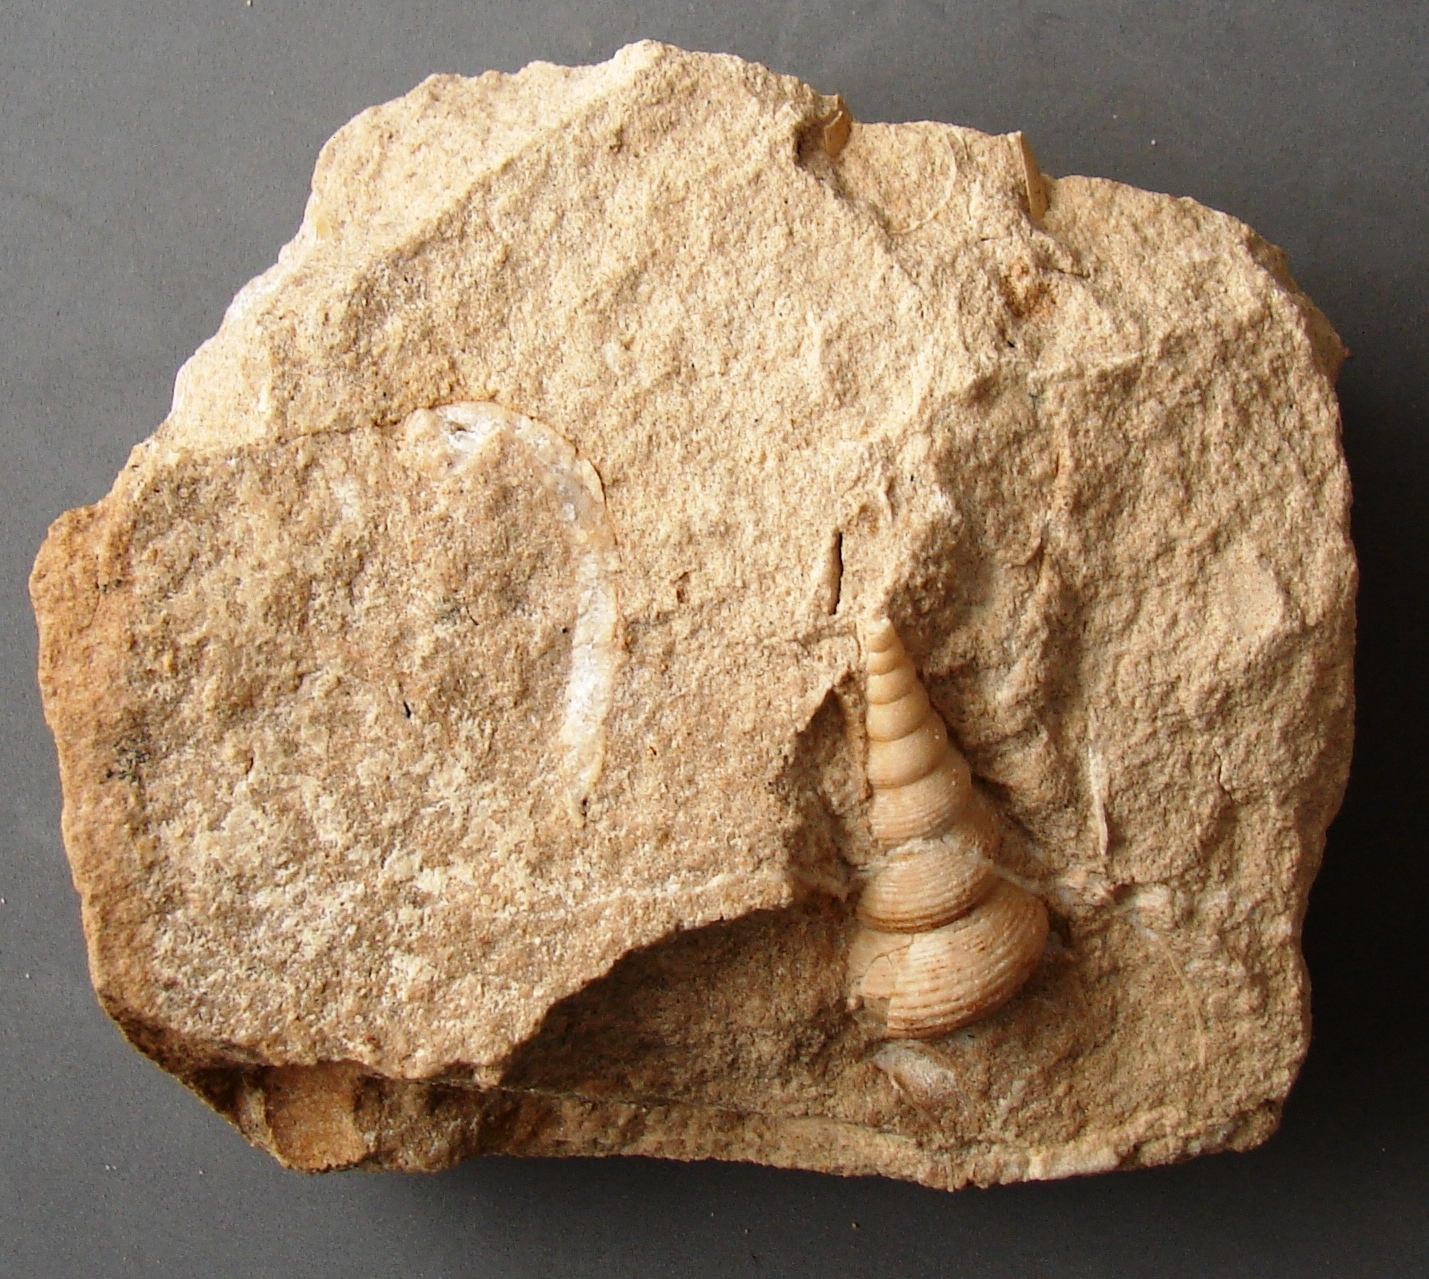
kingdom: Animalia
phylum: Mollusca
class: Gastropoda
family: Pseudomelaniidae
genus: Bourgetia
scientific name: Bourgetia Turritella deshayesea
